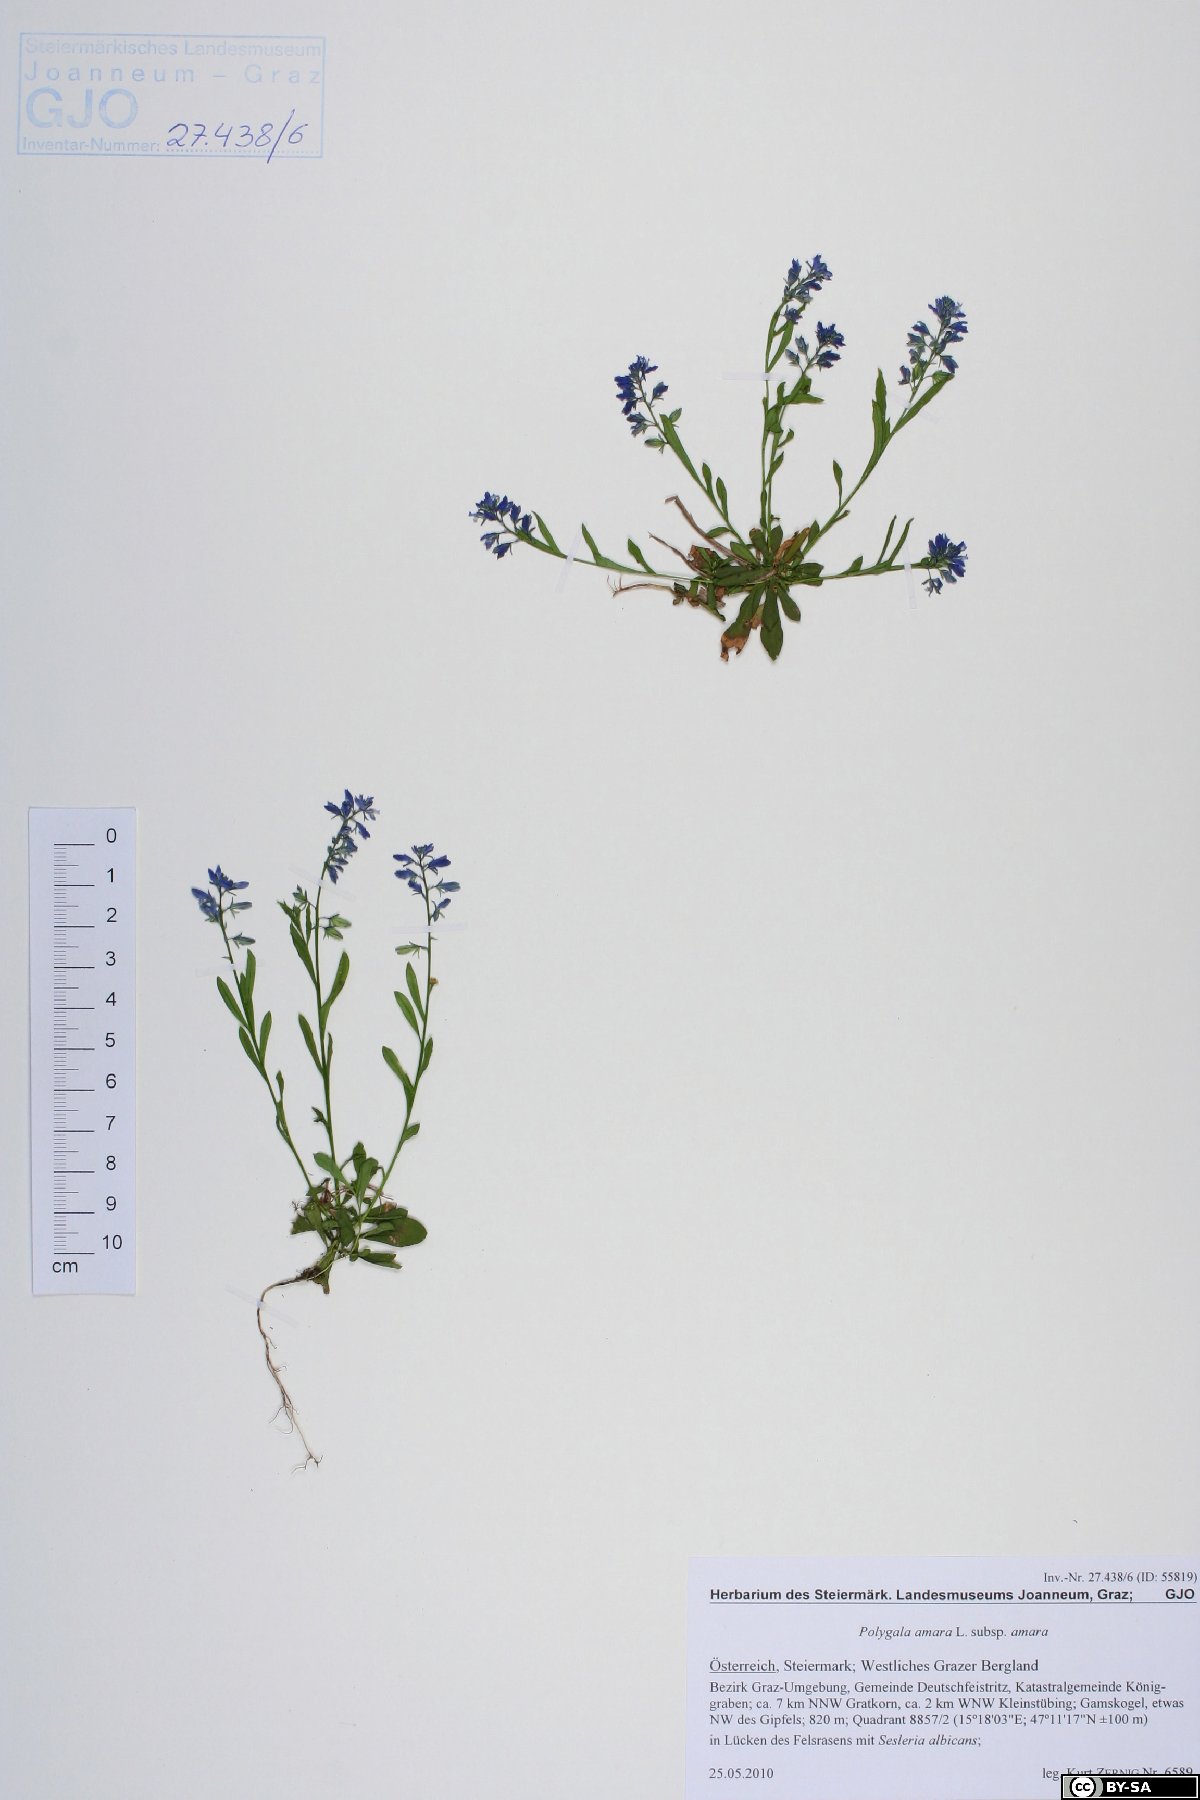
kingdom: Plantae
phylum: Tracheophyta
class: Magnoliopsida
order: Fabales
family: Polygalaceae
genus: Polygala
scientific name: Polygala amara
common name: Milkwort
